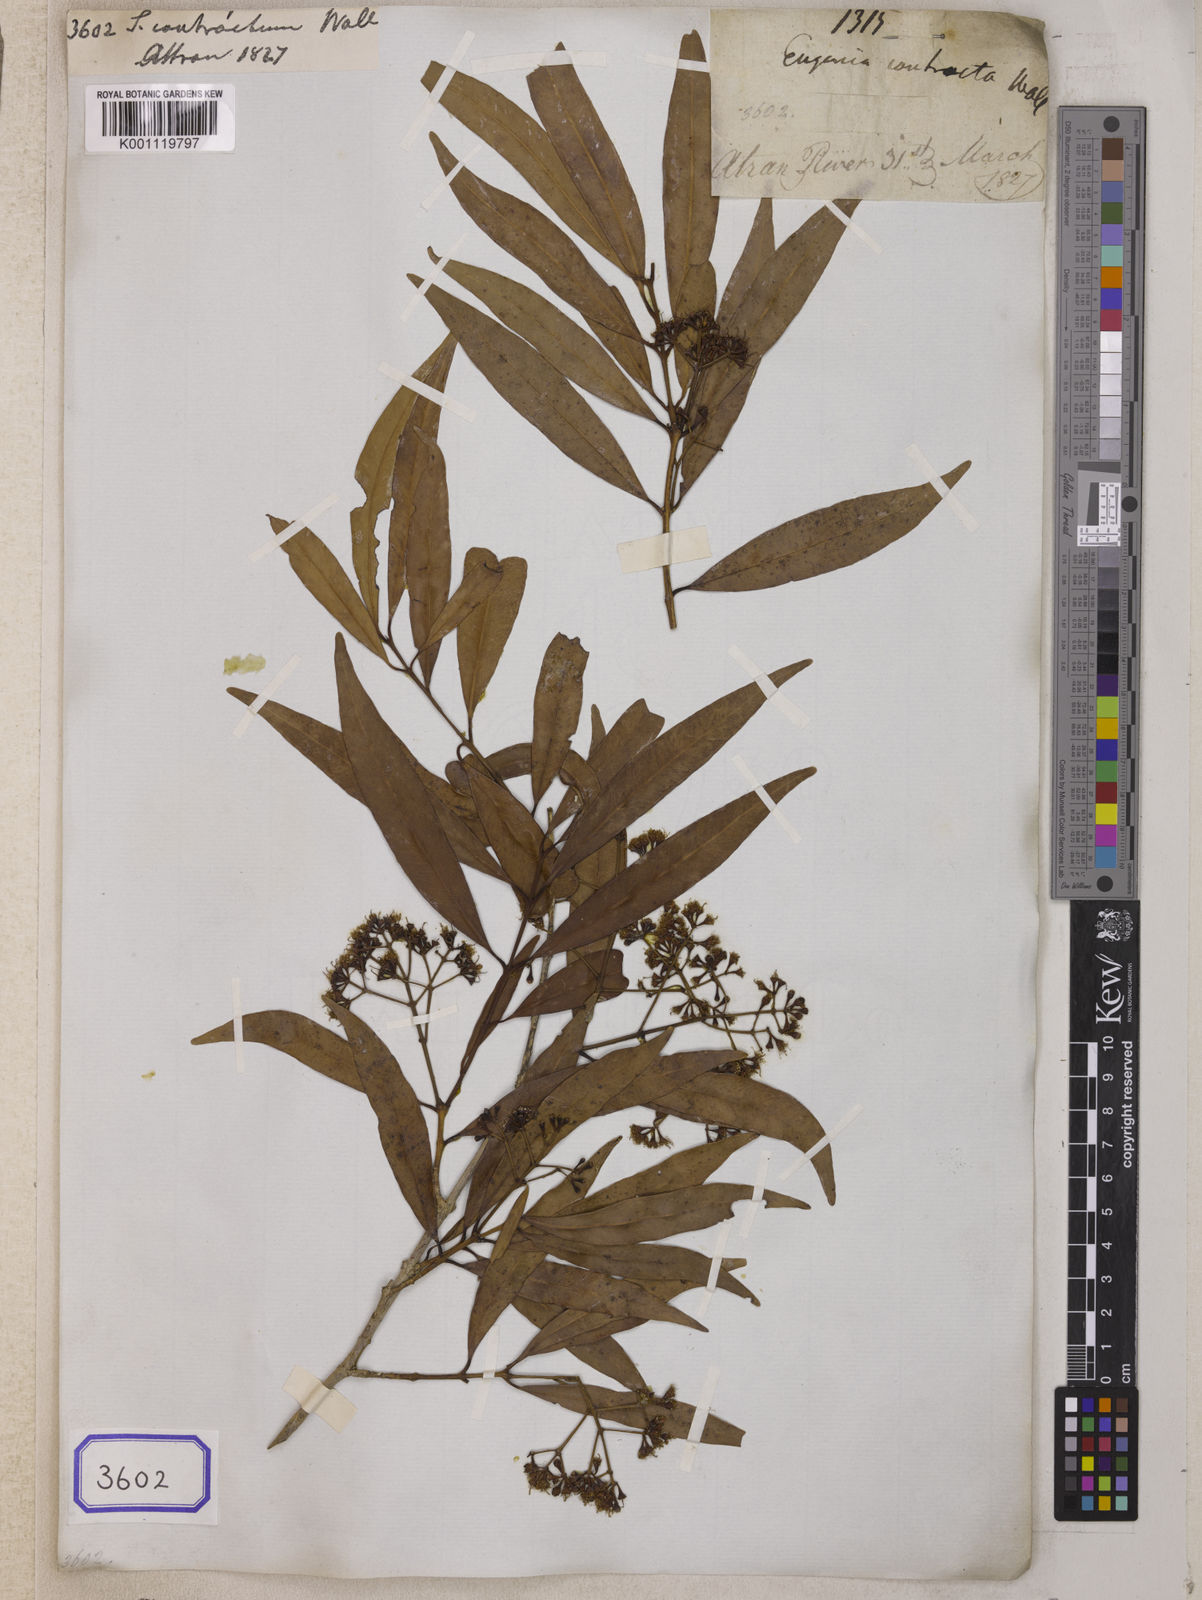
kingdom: Plantae
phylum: Tracheophyta
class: Magnoliopsida
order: Myrtales
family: Myrtaceae
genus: Syzygium
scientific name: Syzygium
